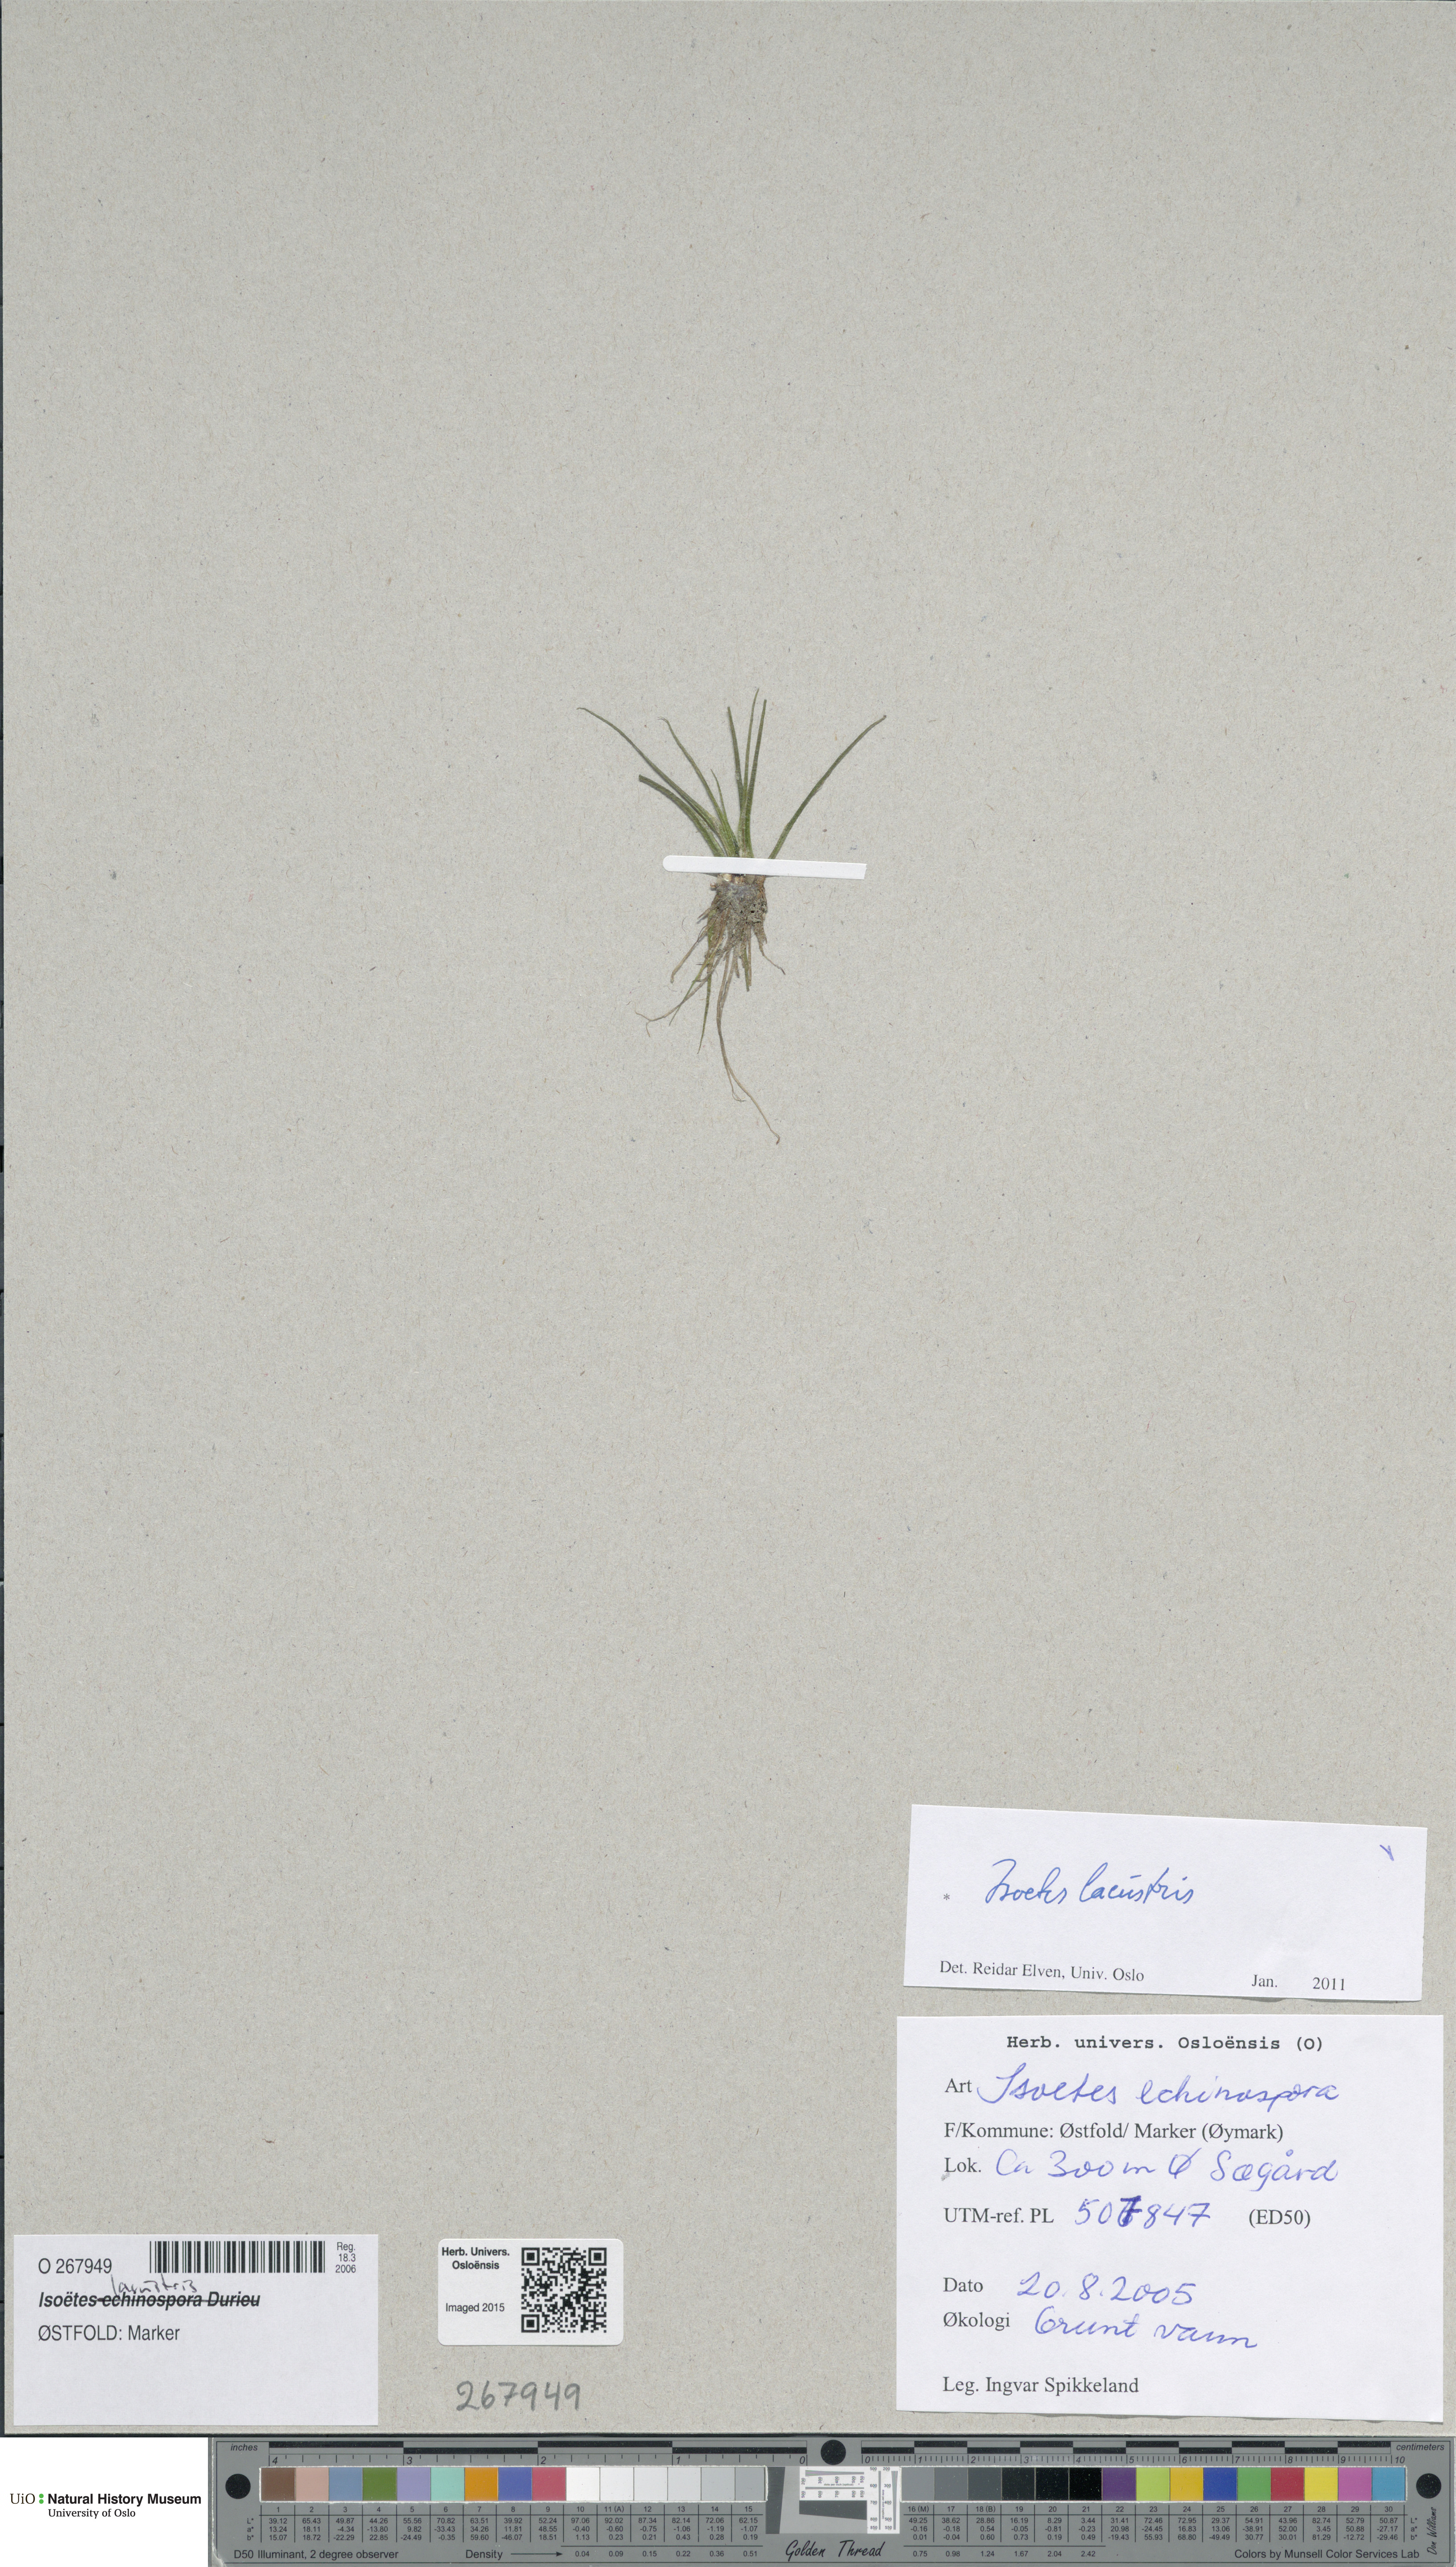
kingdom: Plantae
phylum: Tracheophyta
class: Lycopodiopsida
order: Isoetales
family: Isoetaceae
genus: Isoetes
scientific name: Isoetes lacustris
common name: Common quillwort
